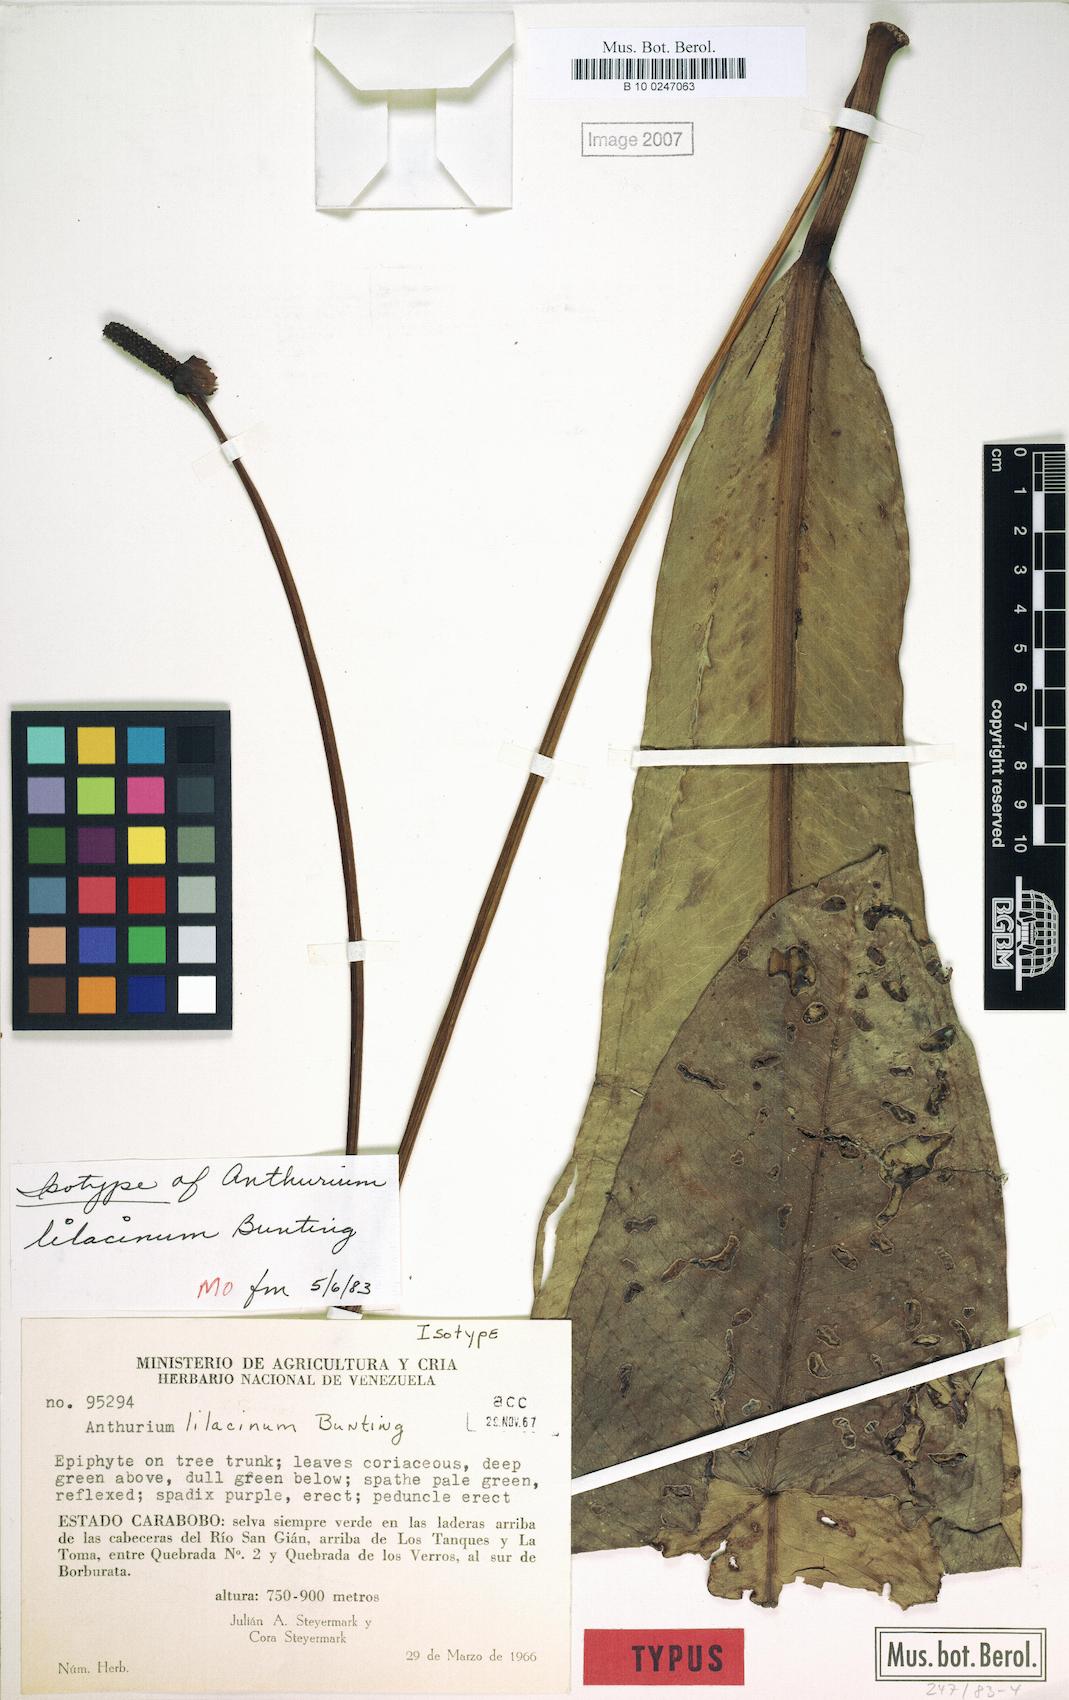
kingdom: Plantae
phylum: Tracheophyta
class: Liliopsida
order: Alismatales
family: Araceae
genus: Anthurium
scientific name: Anthurium lilacinum
